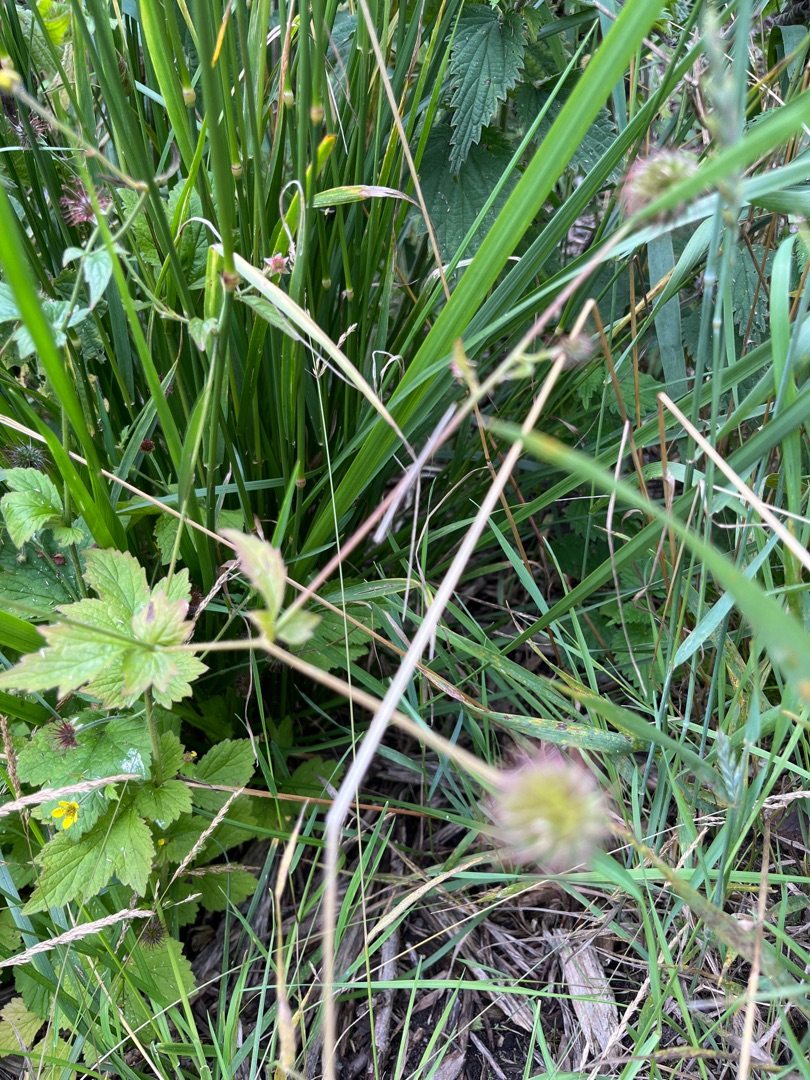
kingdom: Plantae
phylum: Tracheophyta
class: Magnoliopsida
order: Rosales
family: Rosaceae
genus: Geum
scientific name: Geum urbanum
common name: Feber-nellikerod
